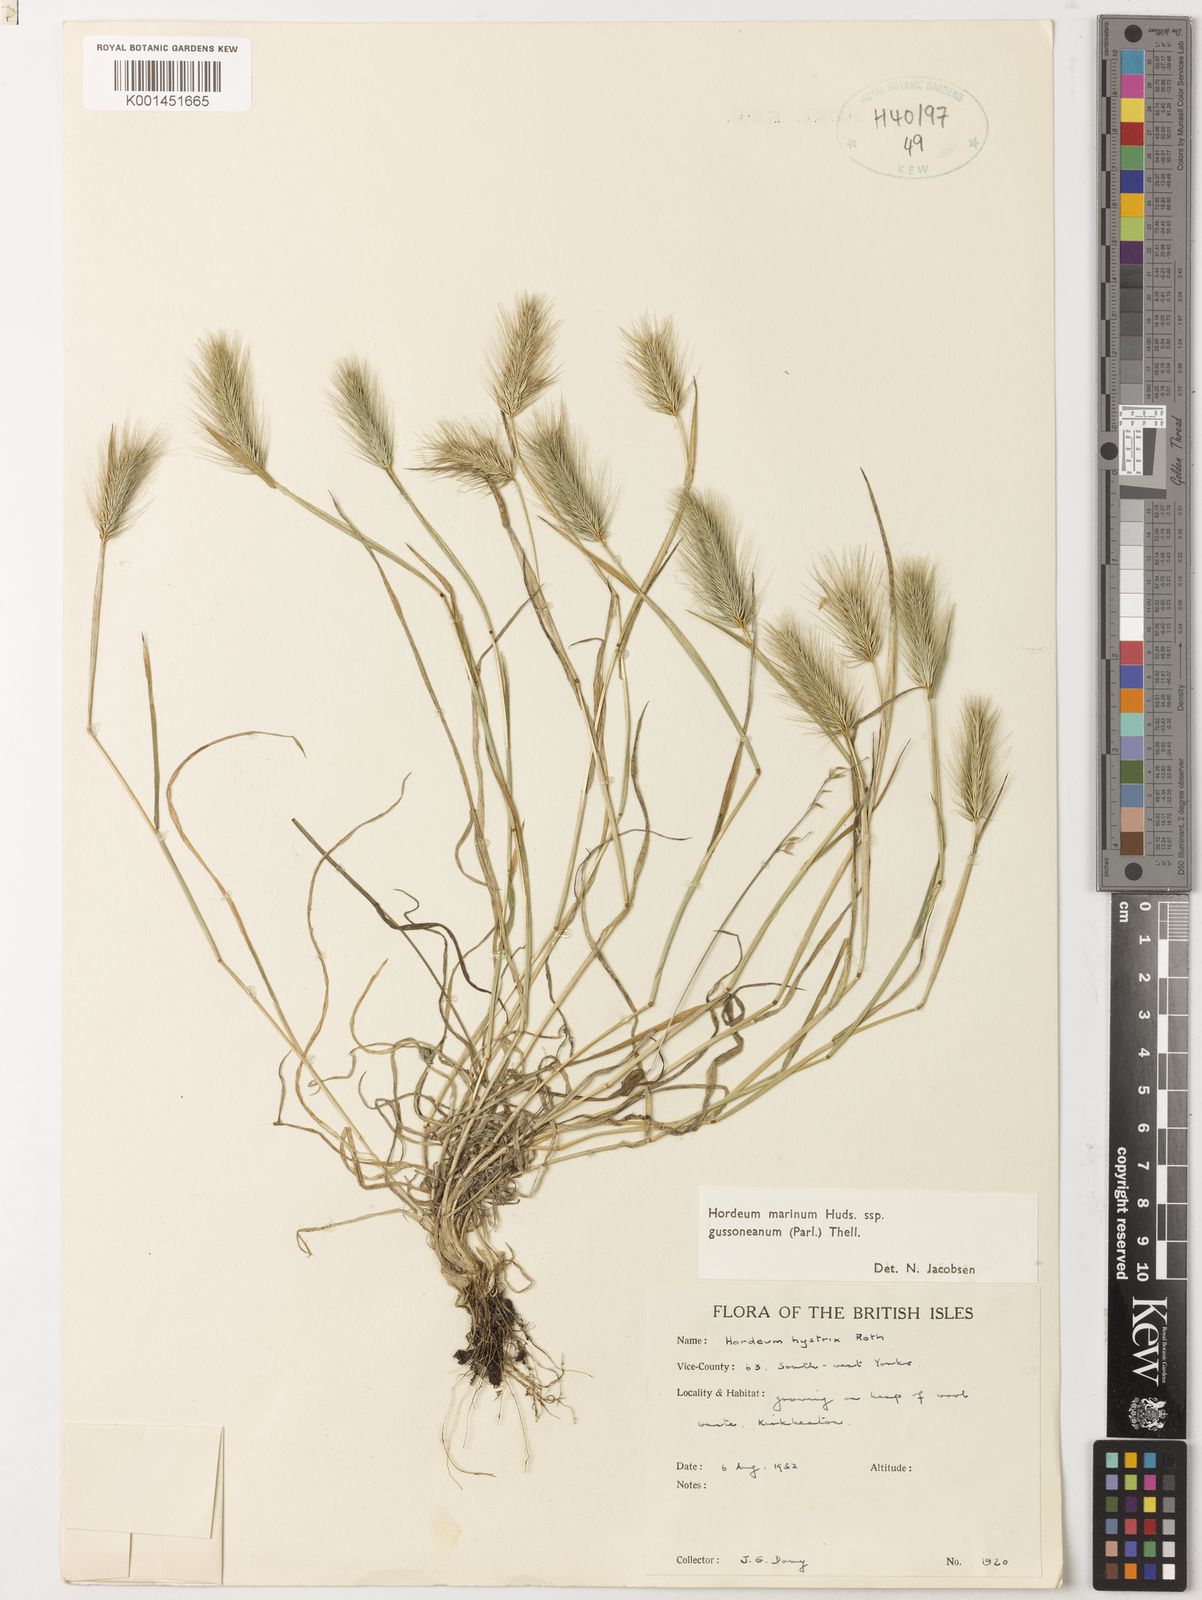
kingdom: Plantae
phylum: Tracheophyta
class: Liliopsida
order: Poales
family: Poaceae
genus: Hordeum
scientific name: Hordeum marinum
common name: Sea barley
